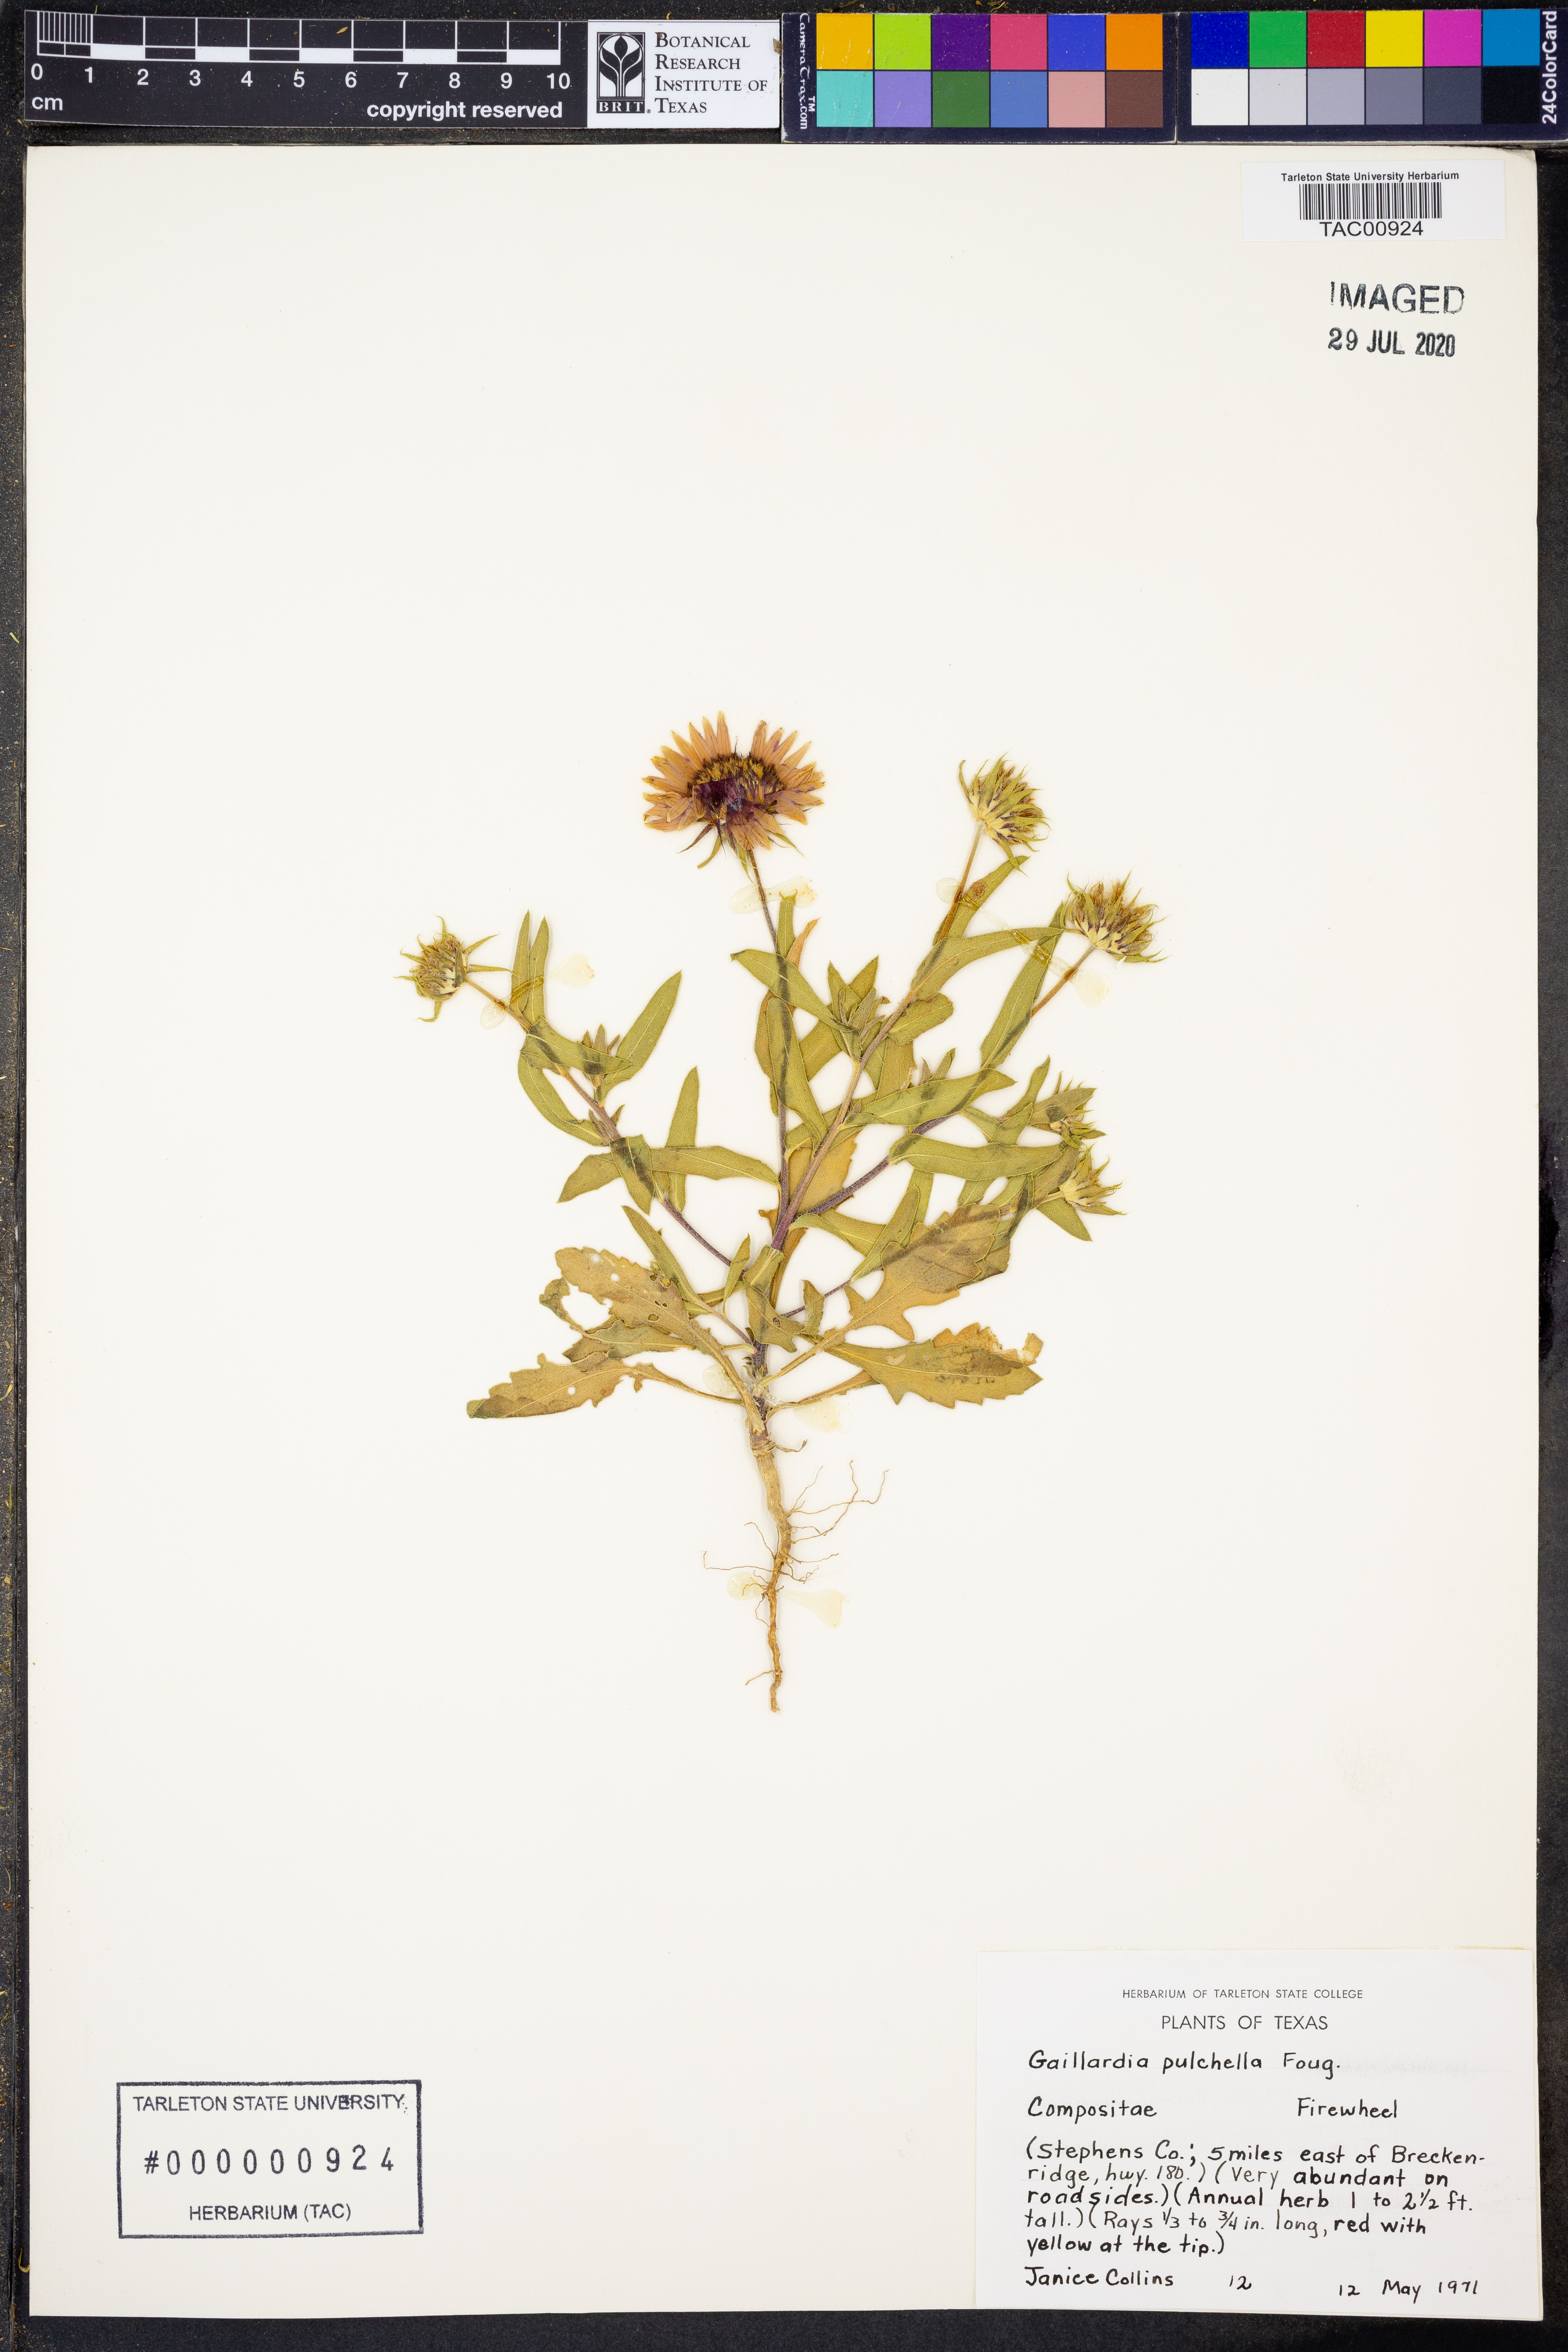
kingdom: Plantae
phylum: Tracheophyta
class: Magnoliopsida
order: Asterales
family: Asteraceae
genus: Gaillardia
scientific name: Gaillardia pulchella
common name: Firewheel
